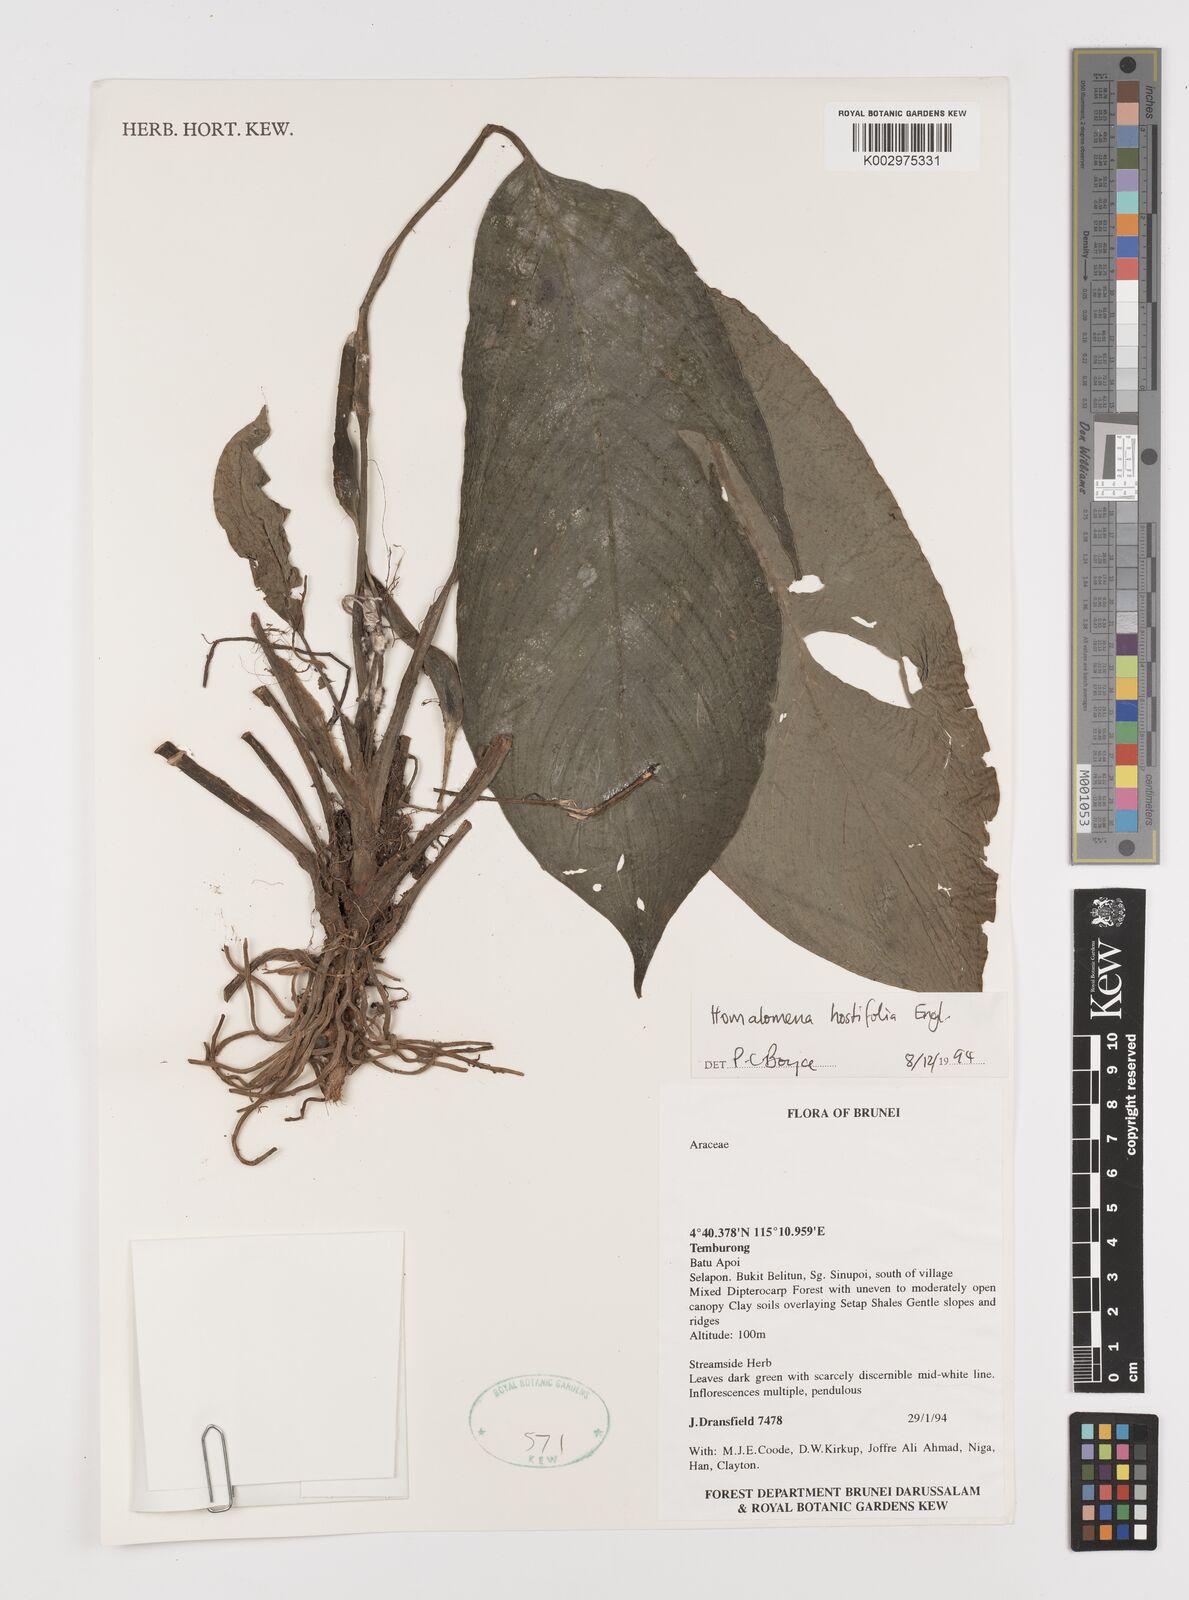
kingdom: Plantae
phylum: Tracheophyta
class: Liliopsida
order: Alismatales
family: Araceae
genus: Homalomena
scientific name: Homalomena ovata
